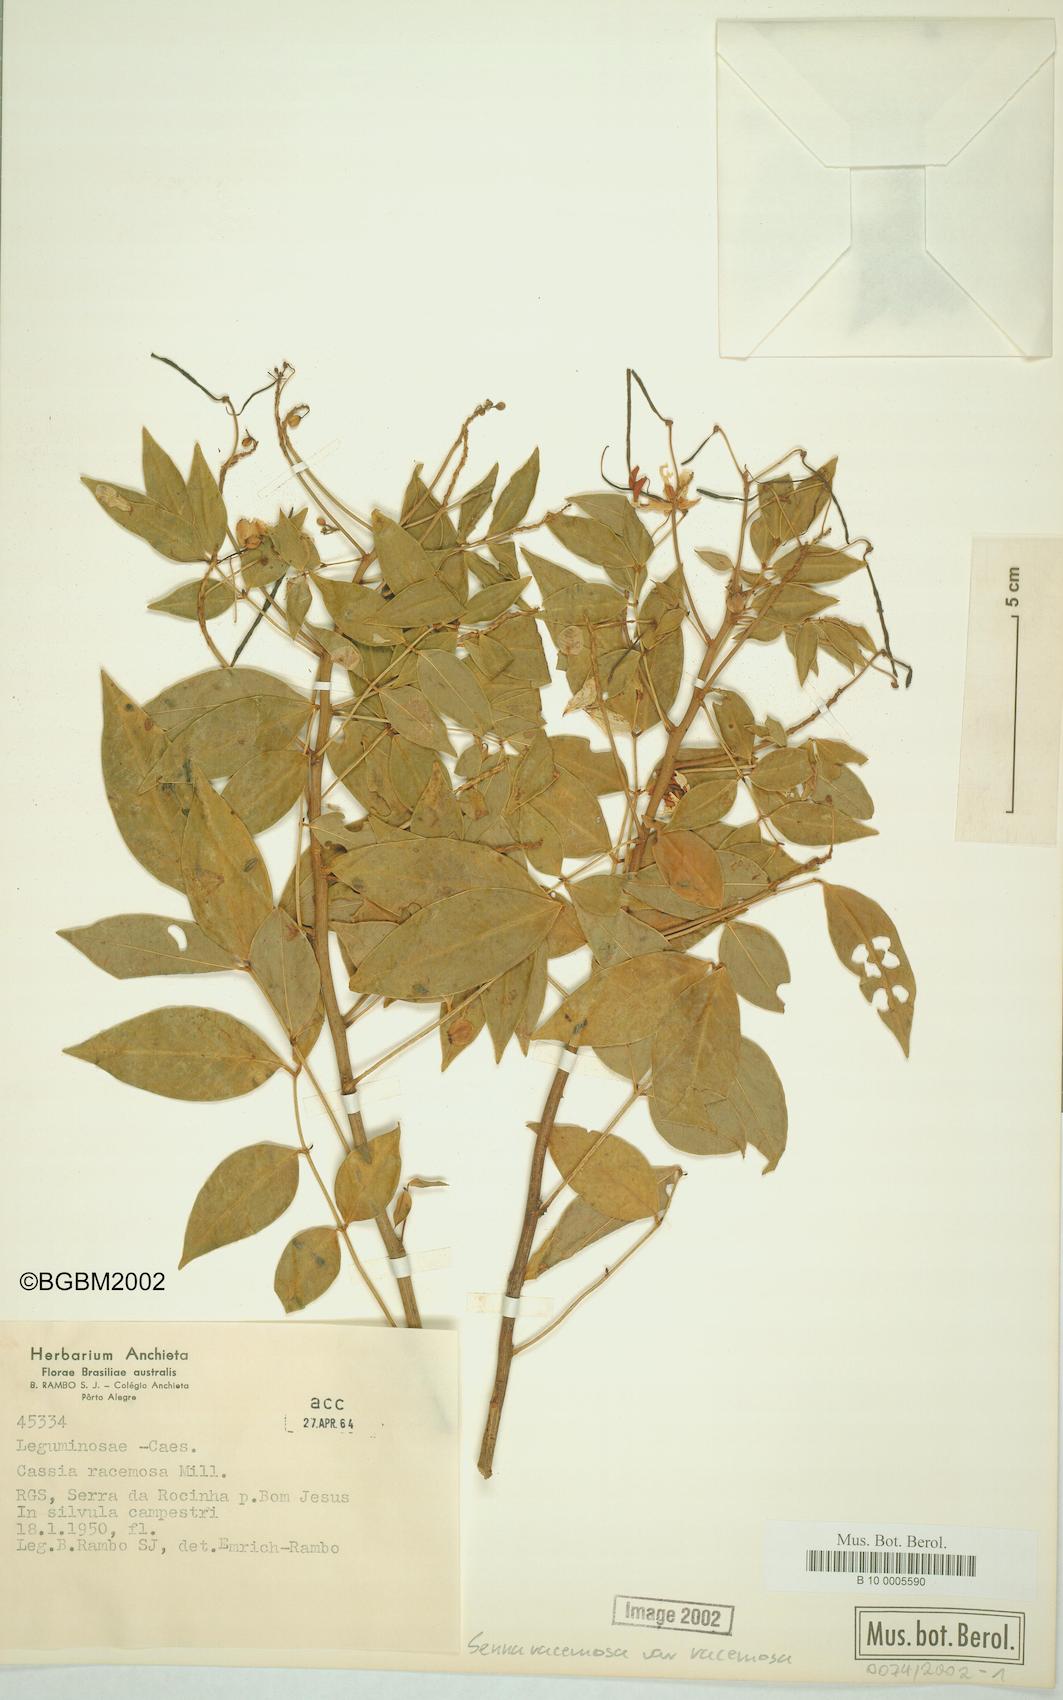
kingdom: Plantae
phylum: Tracheophyta
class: Magnoliopsida
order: Fabales
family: Fabaceae
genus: Senna
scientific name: Senna racemosa
